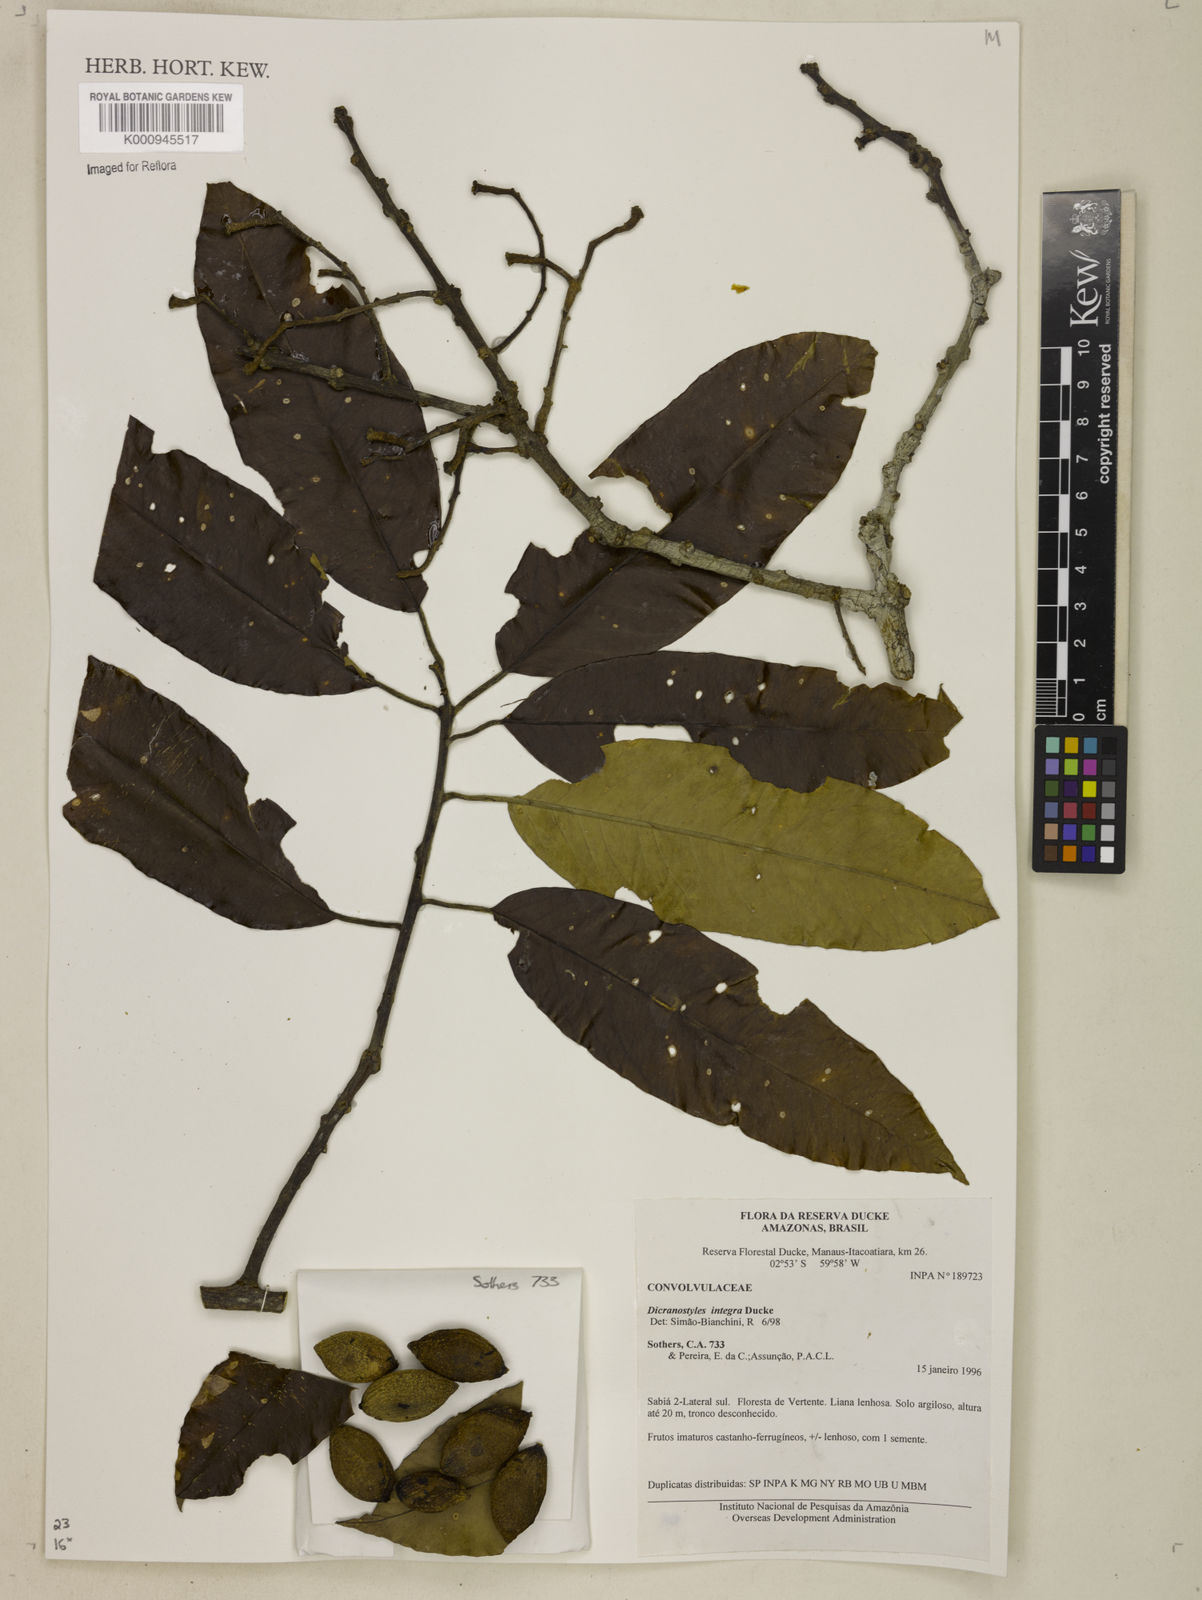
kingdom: Plantae
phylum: Tracheophyta
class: Magnoliopsida
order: Solanales
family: Convolvulaceae
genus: Dicranostyles
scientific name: Dicranostyles integra
